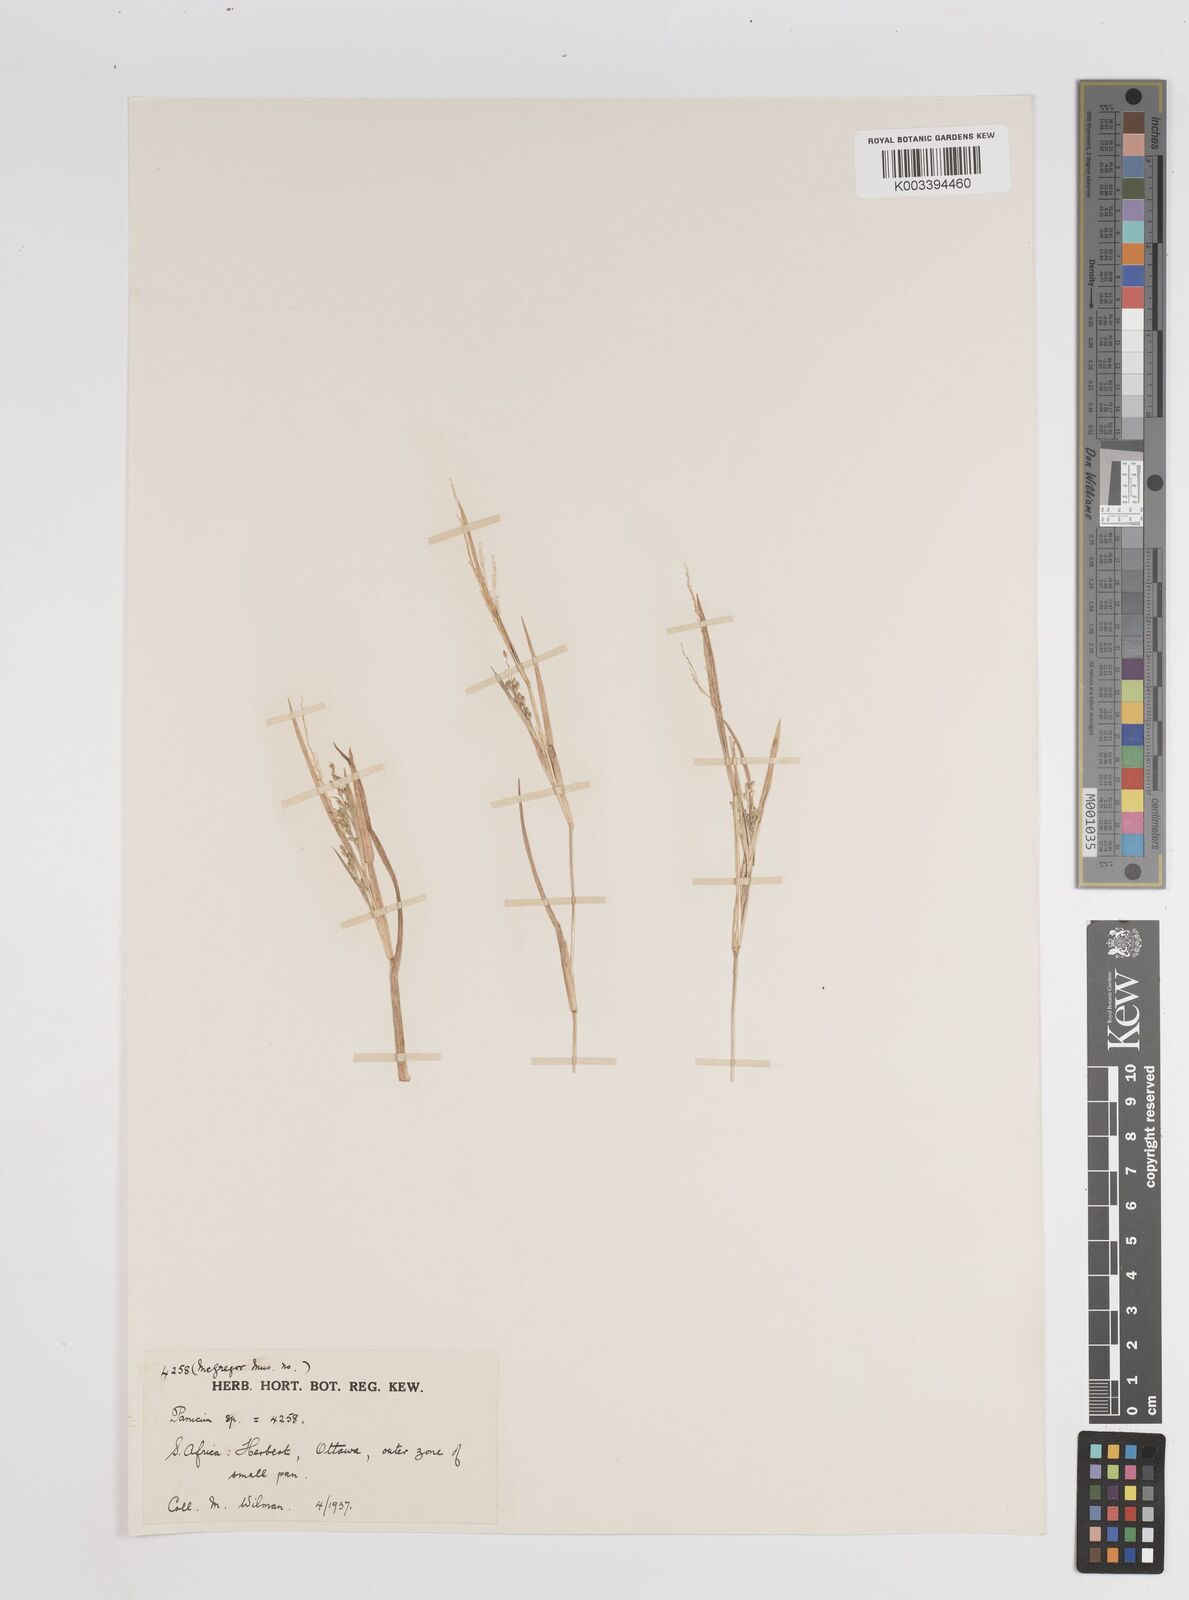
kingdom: Plantae
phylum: Tracheophyta
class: Liliopsida
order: Poales
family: Poaceae
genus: Panicum
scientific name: Panicum
